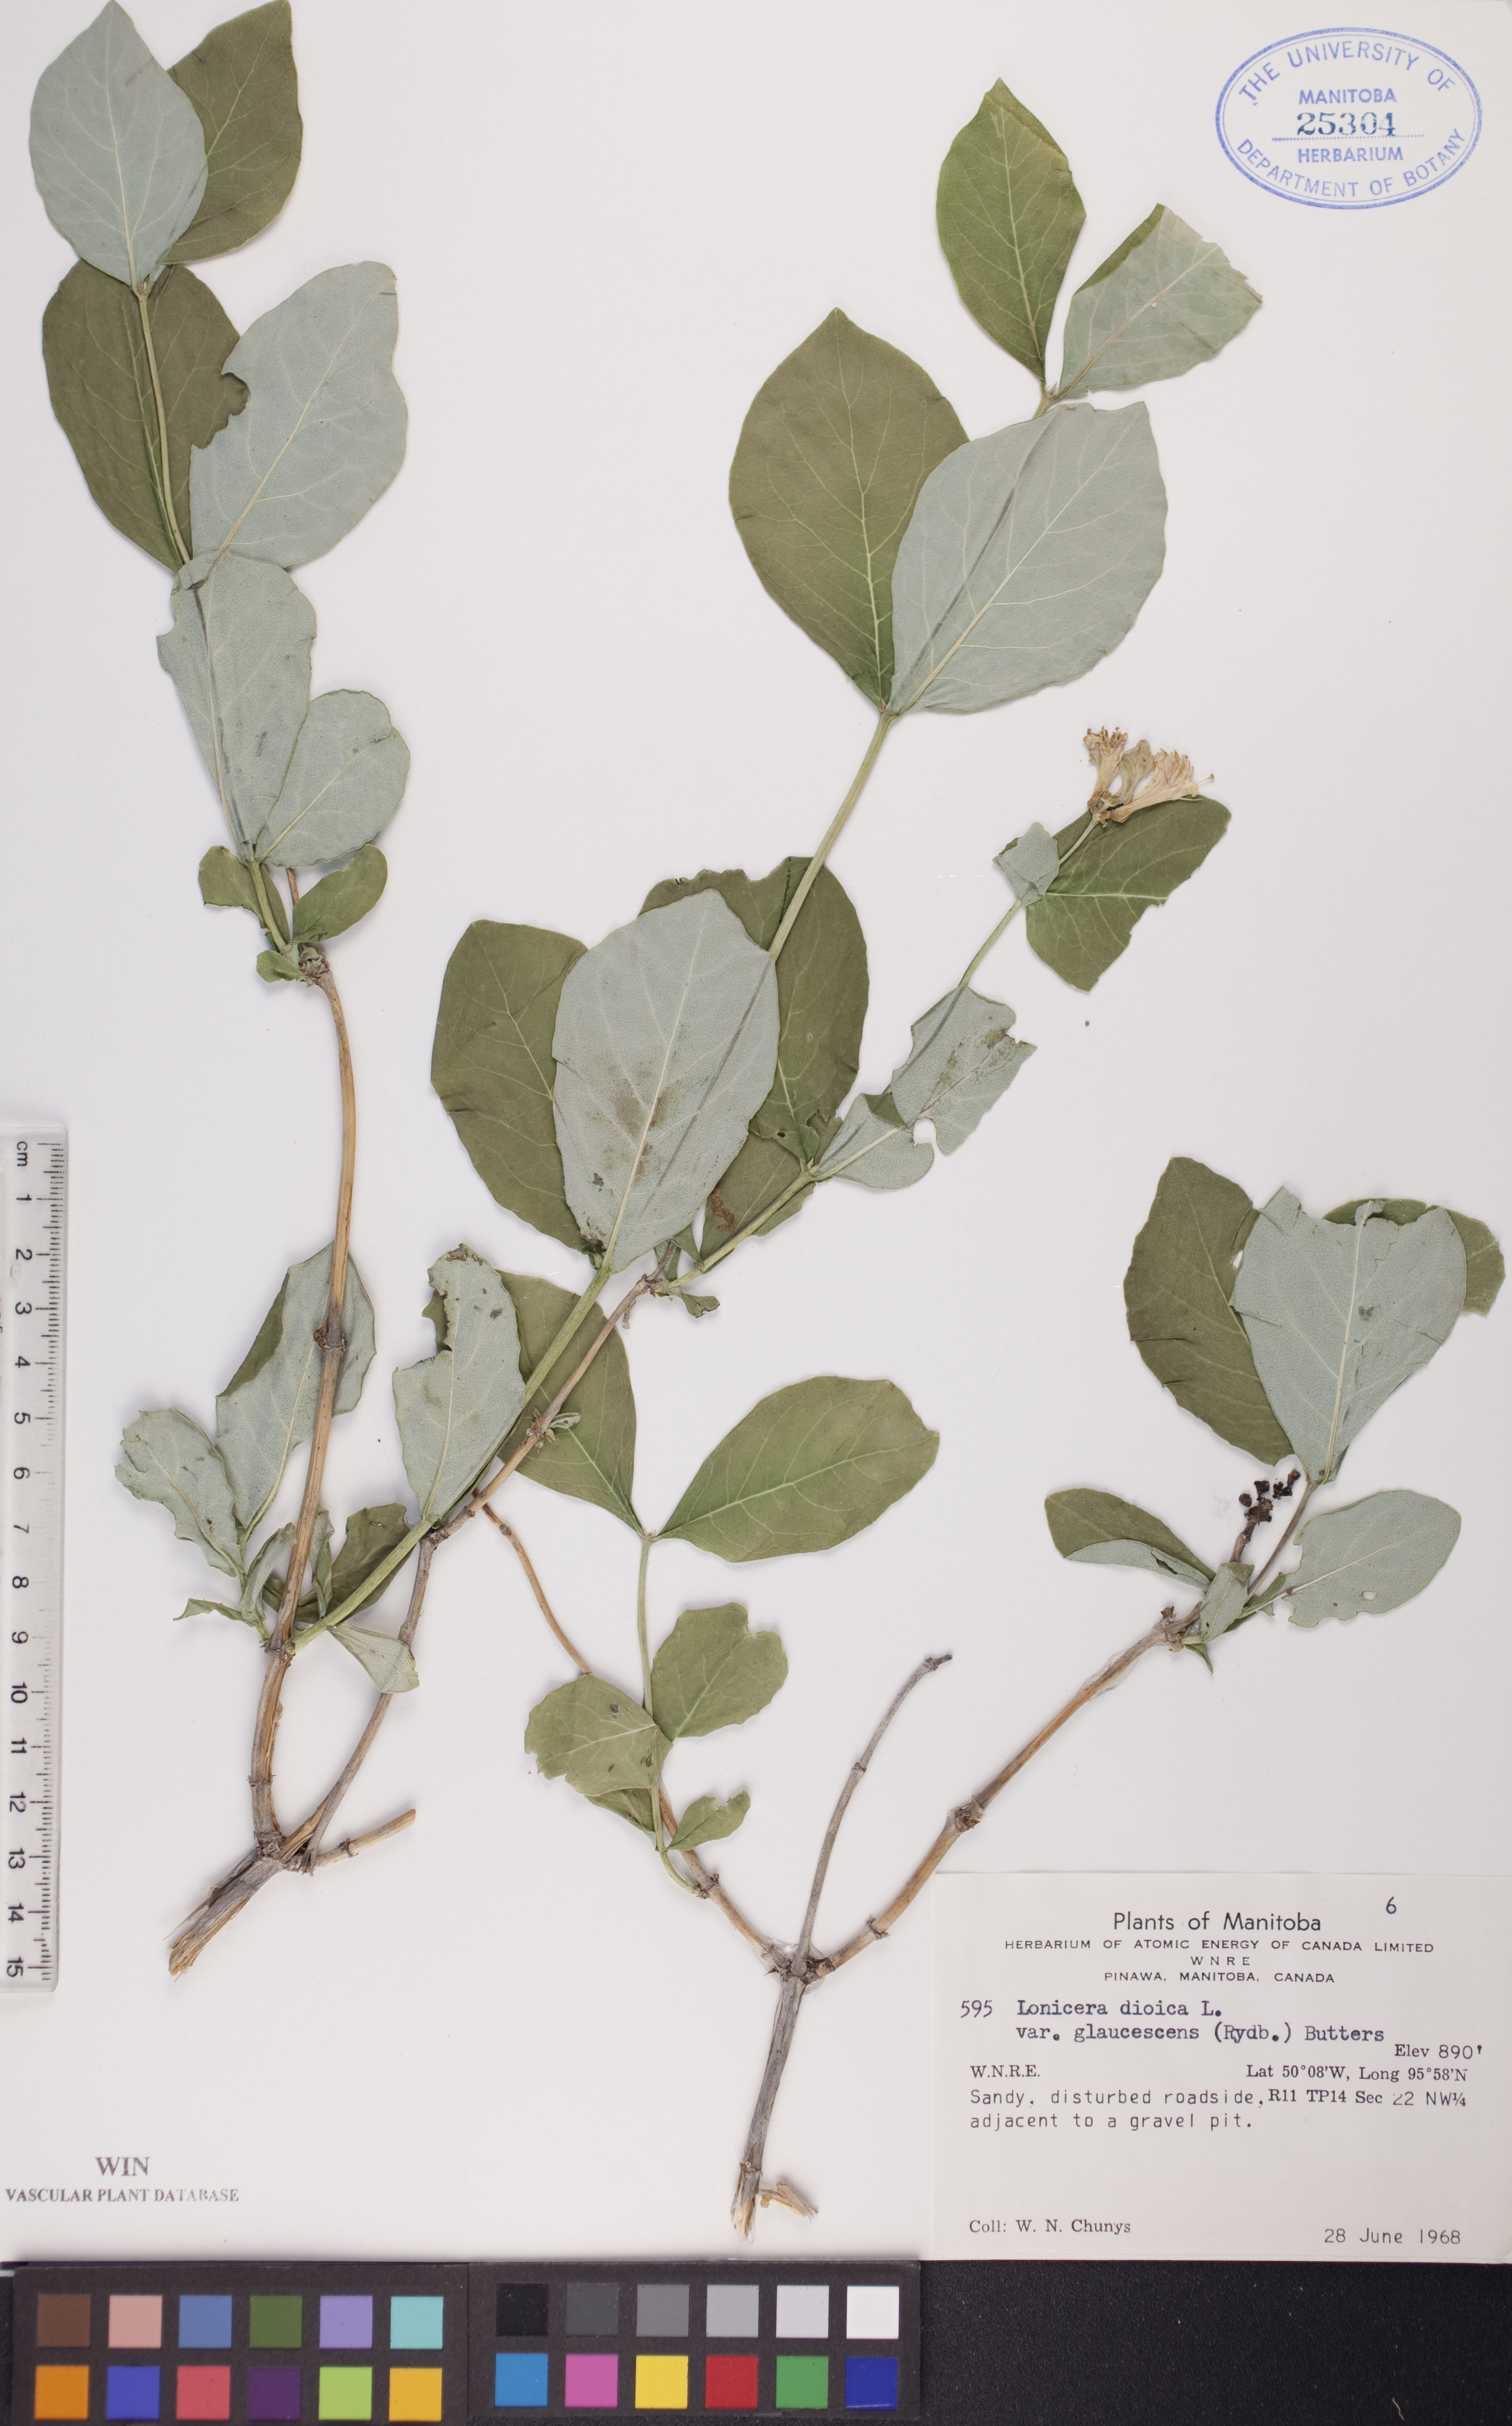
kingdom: Plantae
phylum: Tracheophyta
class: Magnoliopsida
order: Dipsacales
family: Caprifoliaceae
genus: Lonicera
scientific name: Lonicera dioica
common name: Limber honeysuckle
